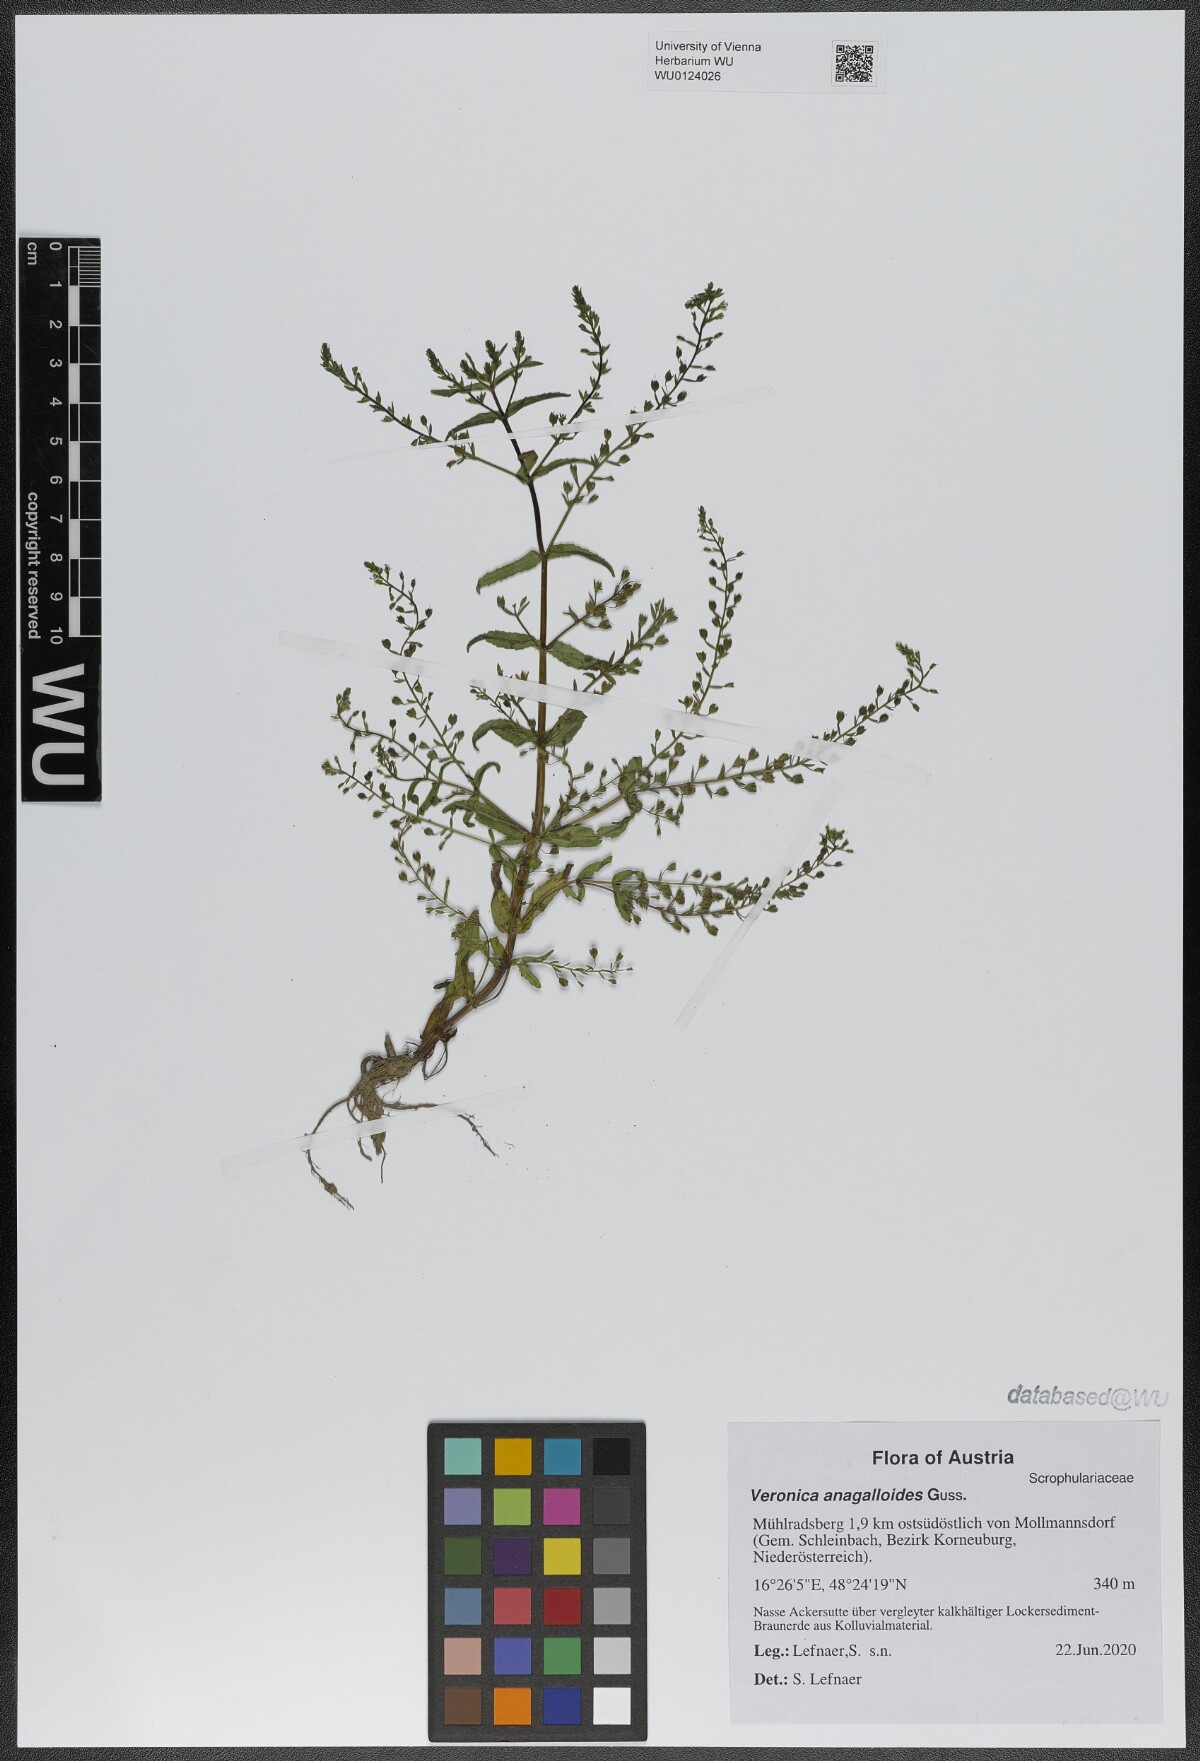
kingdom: Plantae
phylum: Tracheophyta
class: Magnoliopsida
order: Lamiales
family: Plantaginaceae
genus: Veronica
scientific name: Veronica anagalloides
